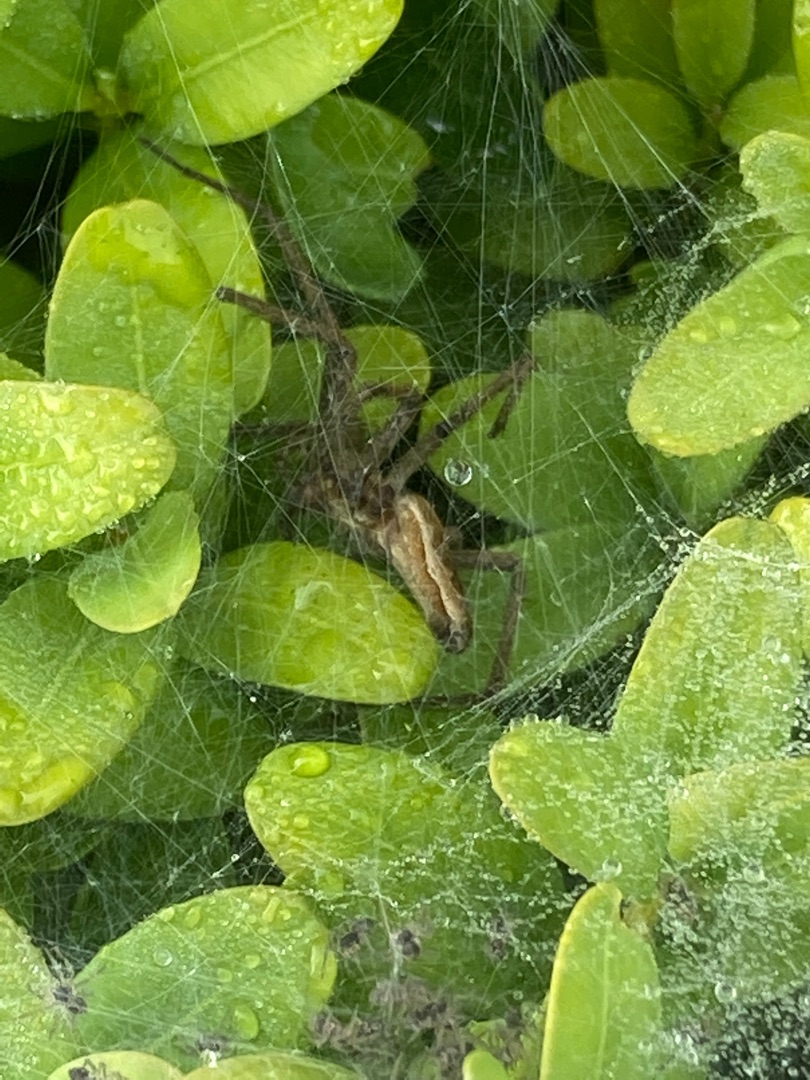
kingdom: Animalia
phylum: Arthropoda
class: Arachnida
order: Araneae
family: Pisauridae
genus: Pisaura
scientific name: Pisaura mirabilis
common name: Almindelig rovedderkop
